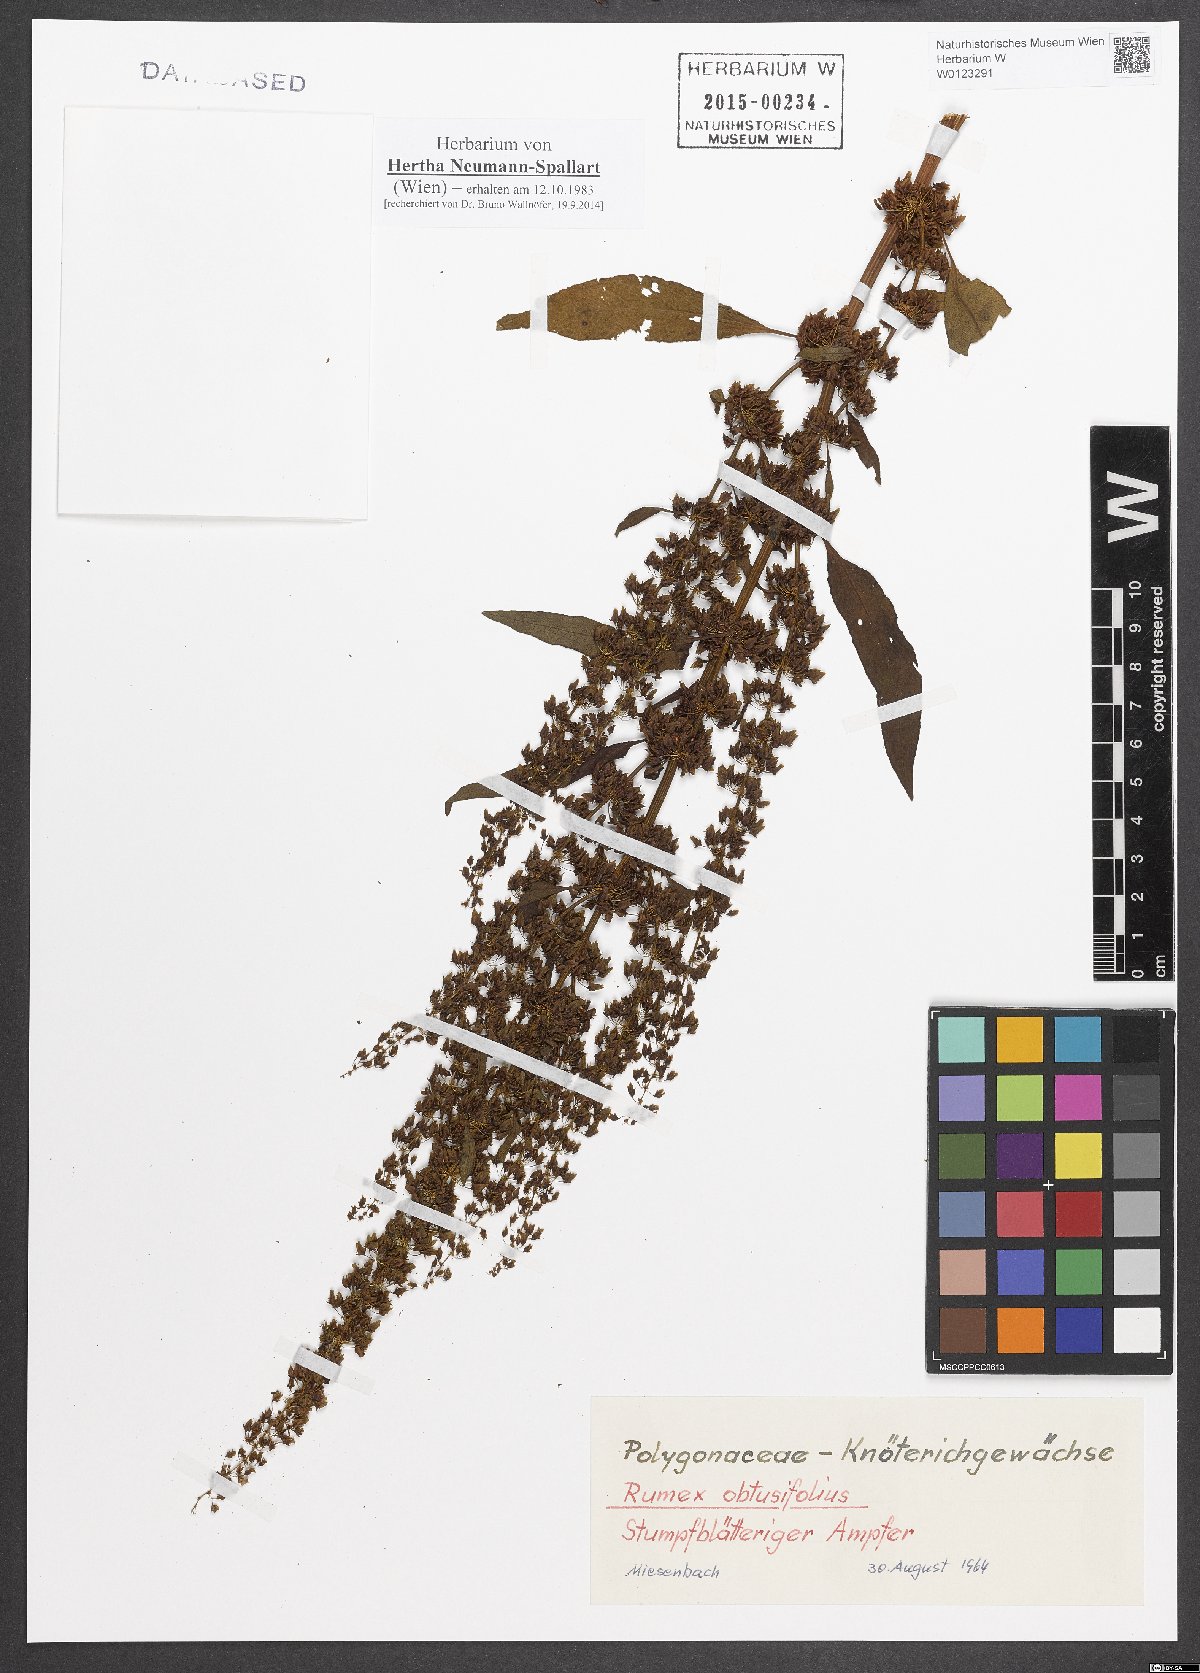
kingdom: Plantae
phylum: Tracheophyta
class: Magnoliopsida
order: Caryophyllales
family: Polygonaceae
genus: Rumex
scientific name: Rumex obtusifolius
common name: Bitter dock
